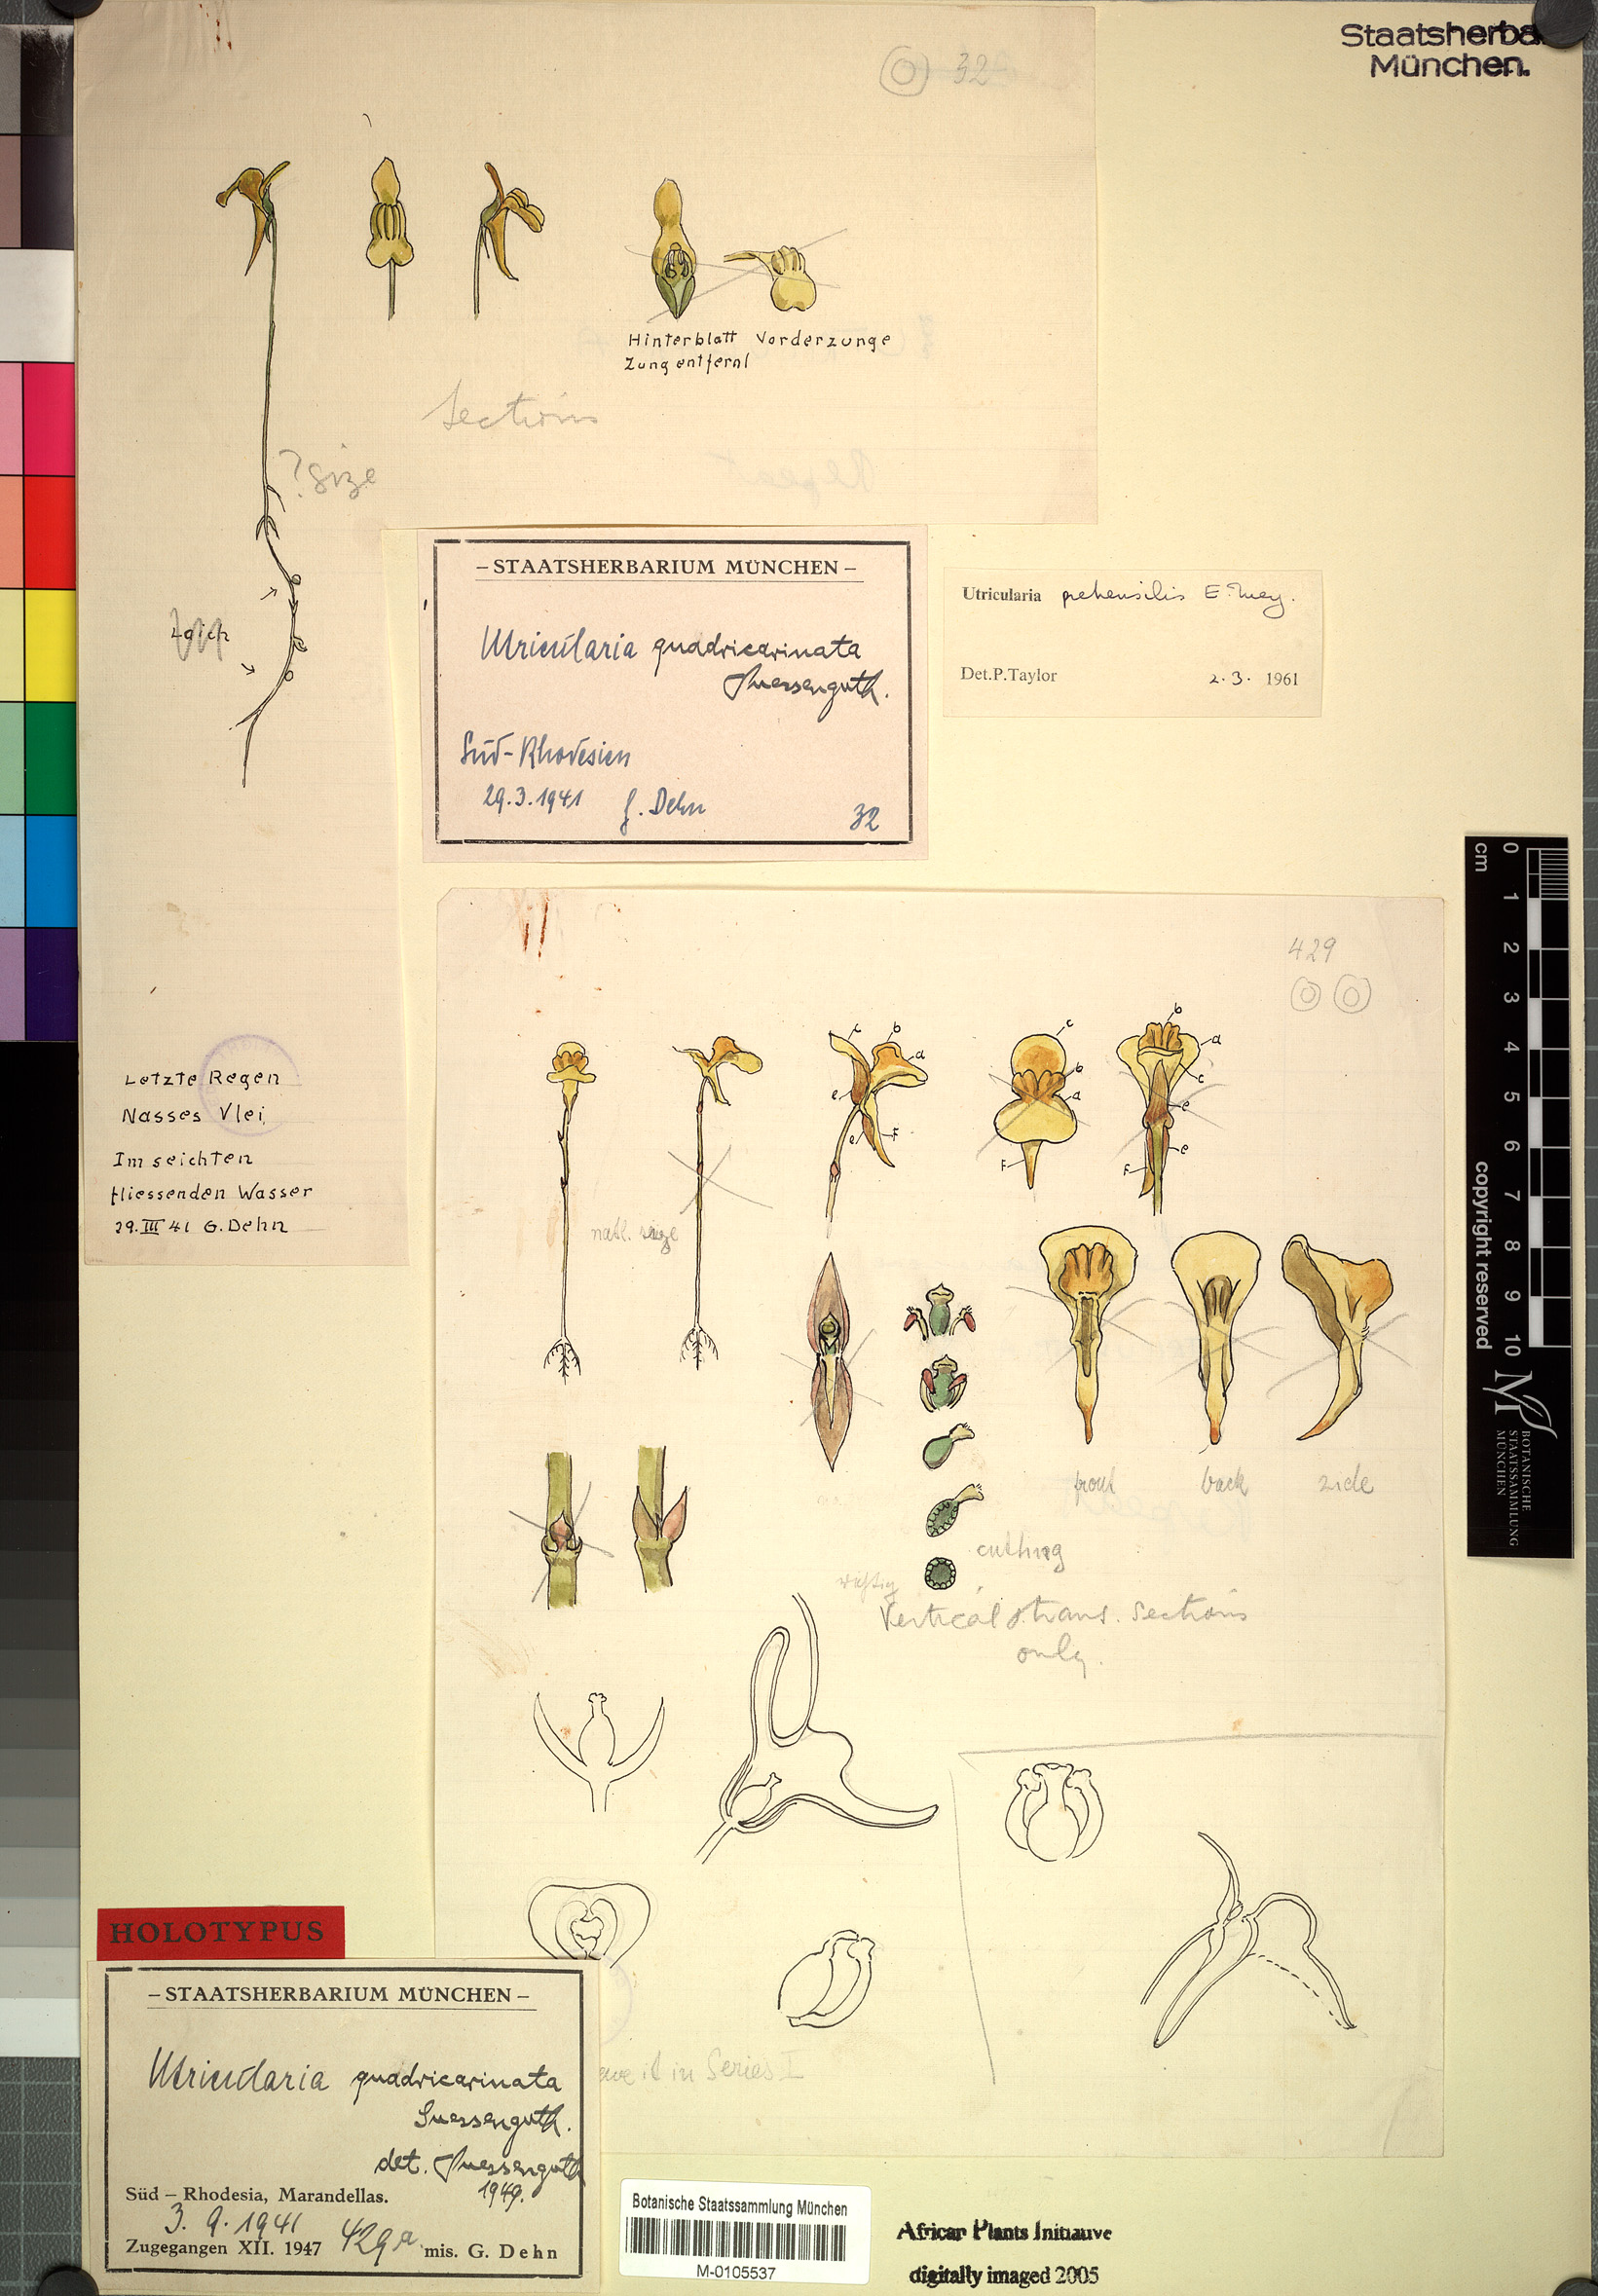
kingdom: Plantae
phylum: Tracheophyta
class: Magnoliopsida
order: Lamiales
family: Lentibulariaceae
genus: Utricularia
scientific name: Utricularia prehensilis
